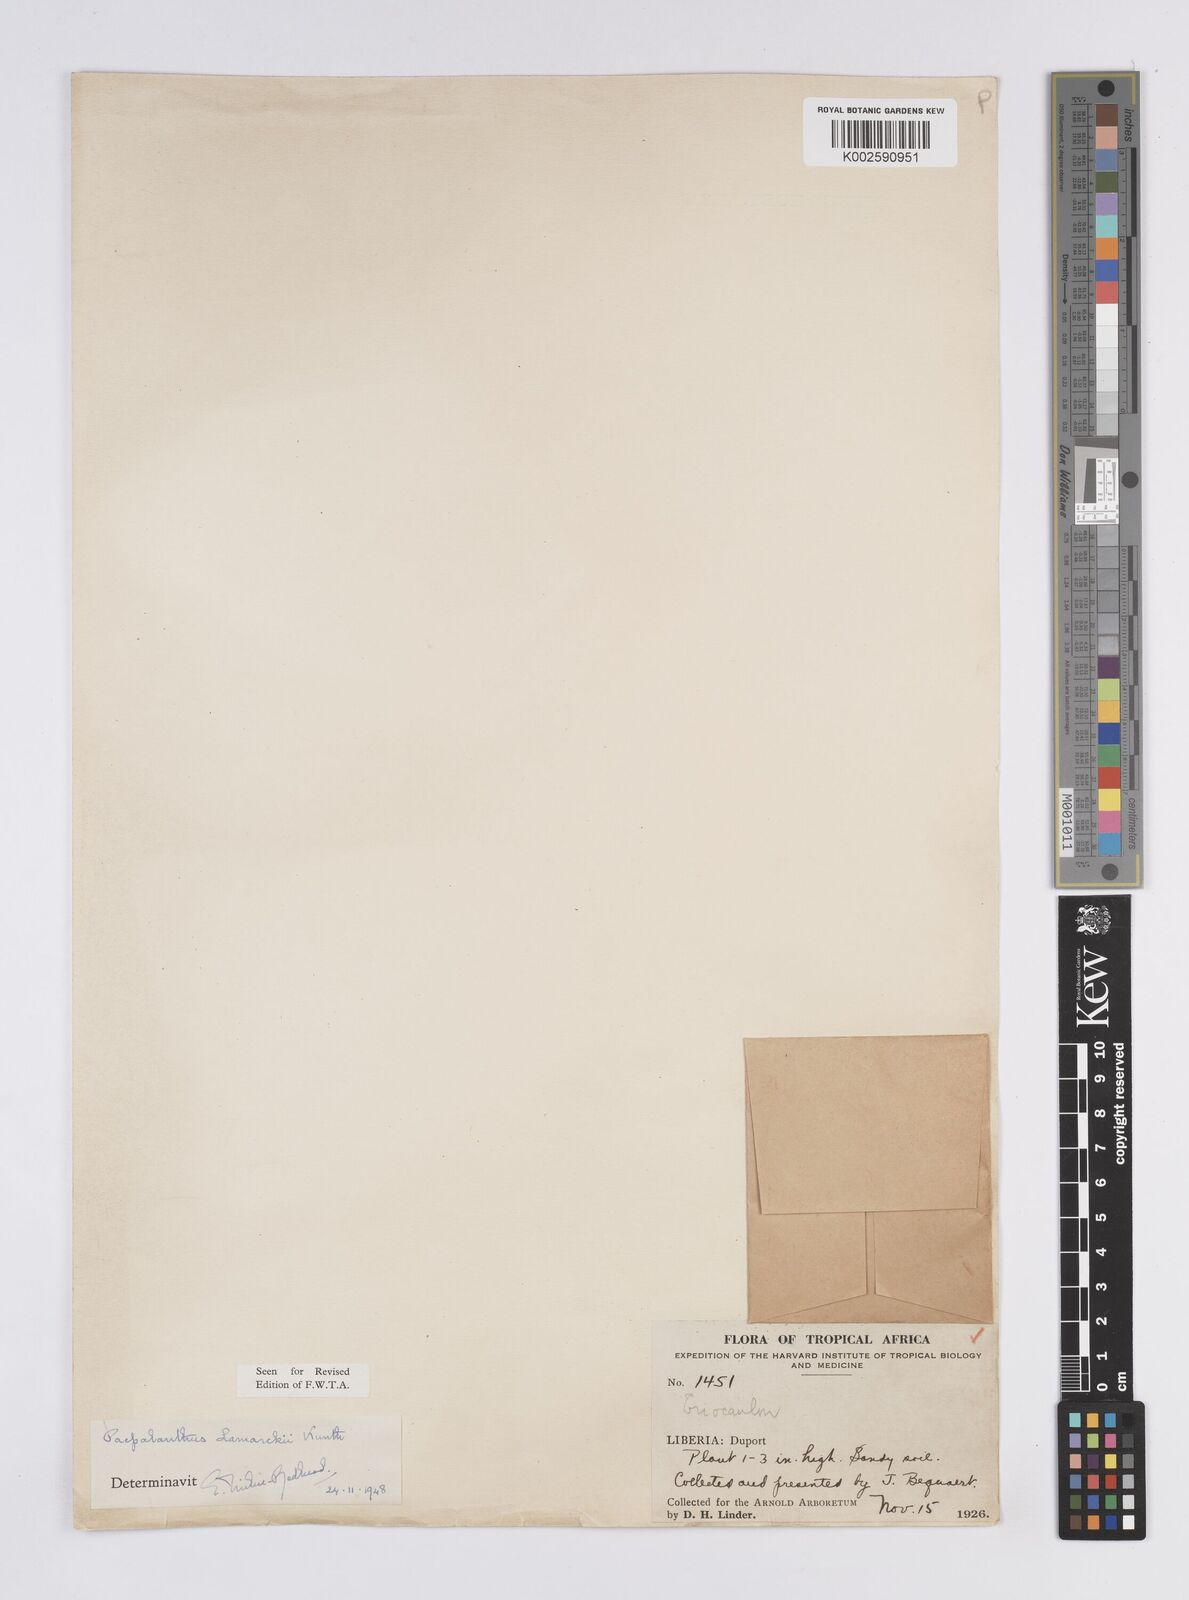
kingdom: Plantae
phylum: Tracheophyta
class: Liliopsida
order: Poales
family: Eriocaulaceae
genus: Paepalanthus
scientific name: Paepalanthus lamarckii
